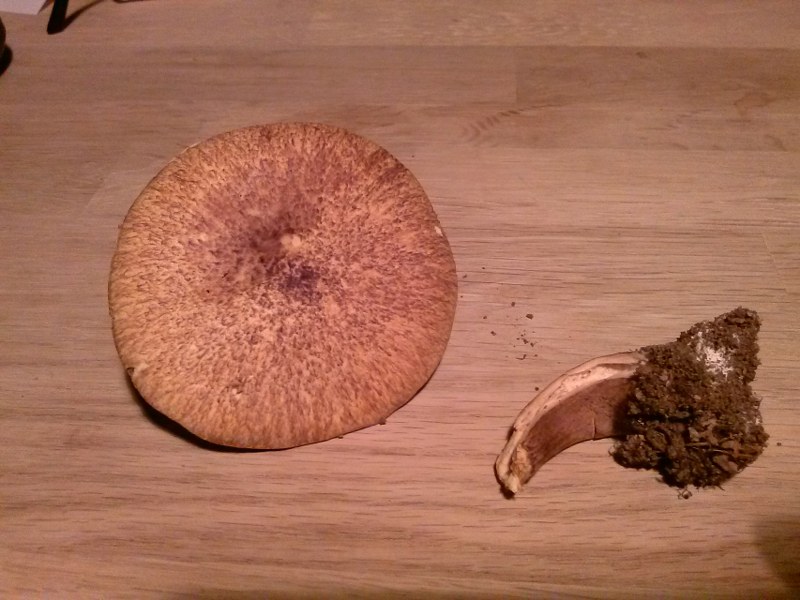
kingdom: Fungi
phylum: Basidiomycota
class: Agaricomycetes
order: Boletales
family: Suillaceae
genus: Suillus
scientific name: Suillus cavipes
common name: hulstokket slimrørhat
